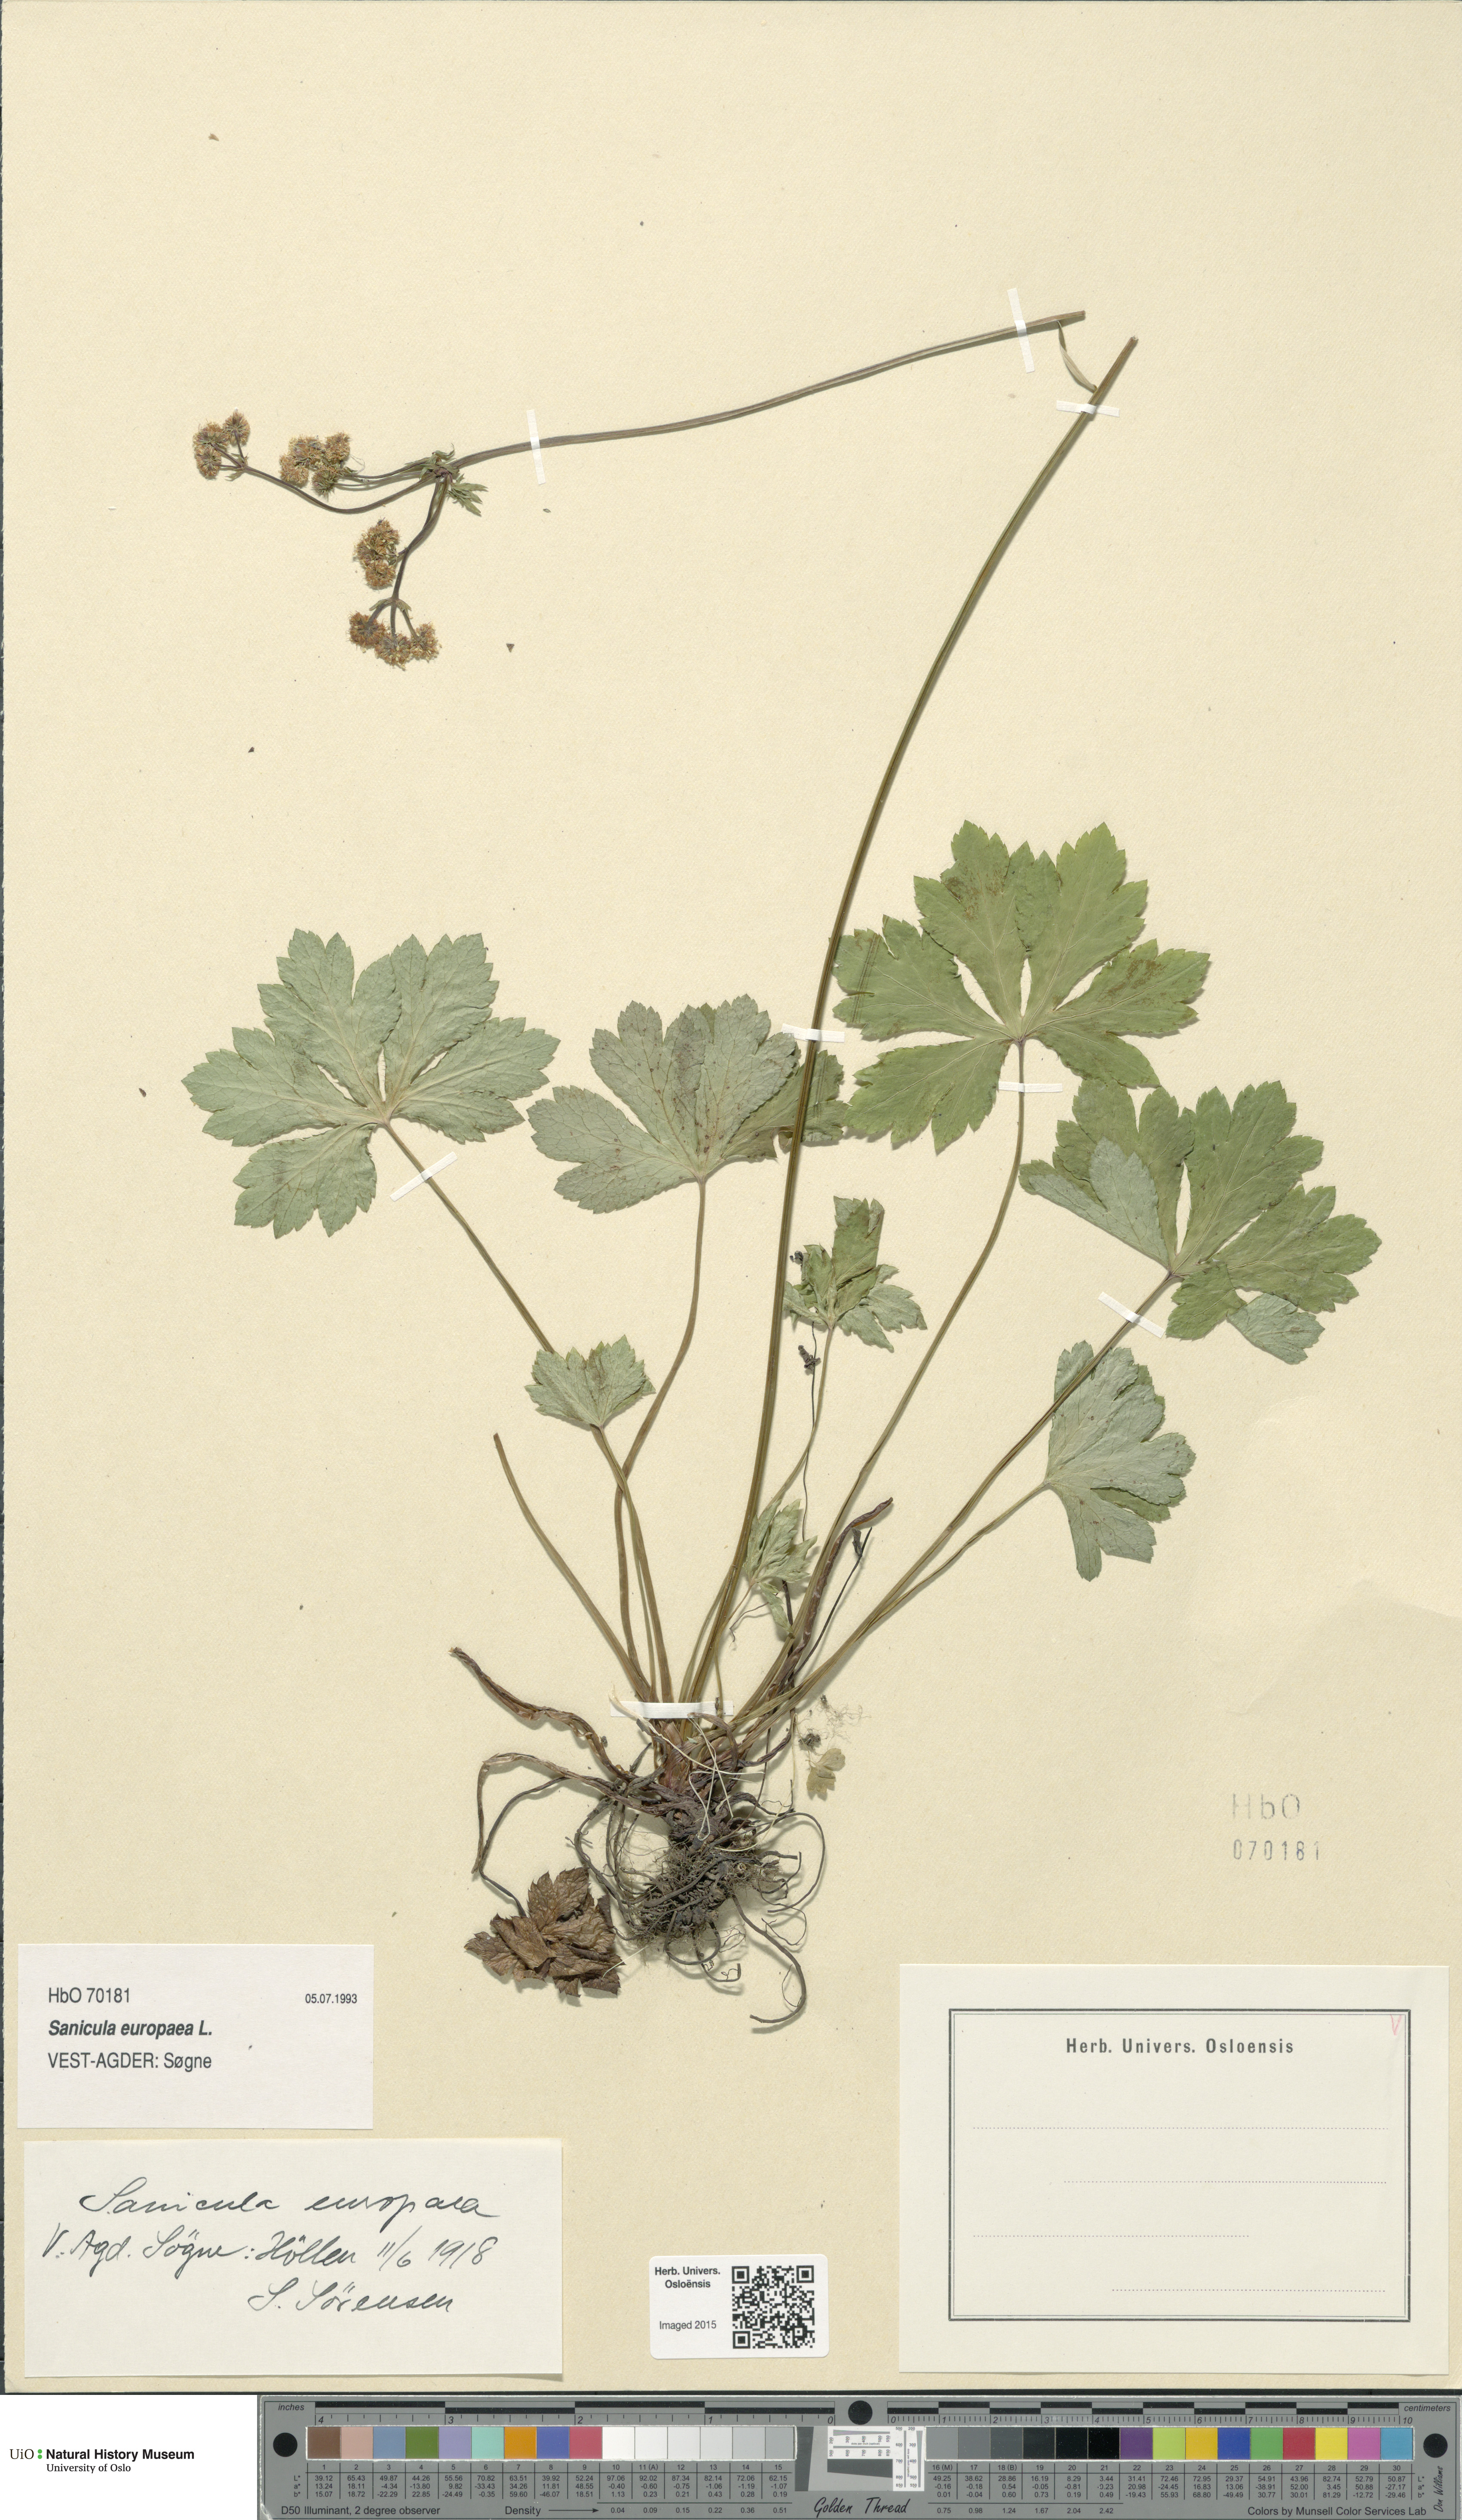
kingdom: Plantae
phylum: Tracheophyta
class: Magnoliopsida
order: Apiales
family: Apiaceae
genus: Sanicula
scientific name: Sanicula europaea
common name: Sanicle
